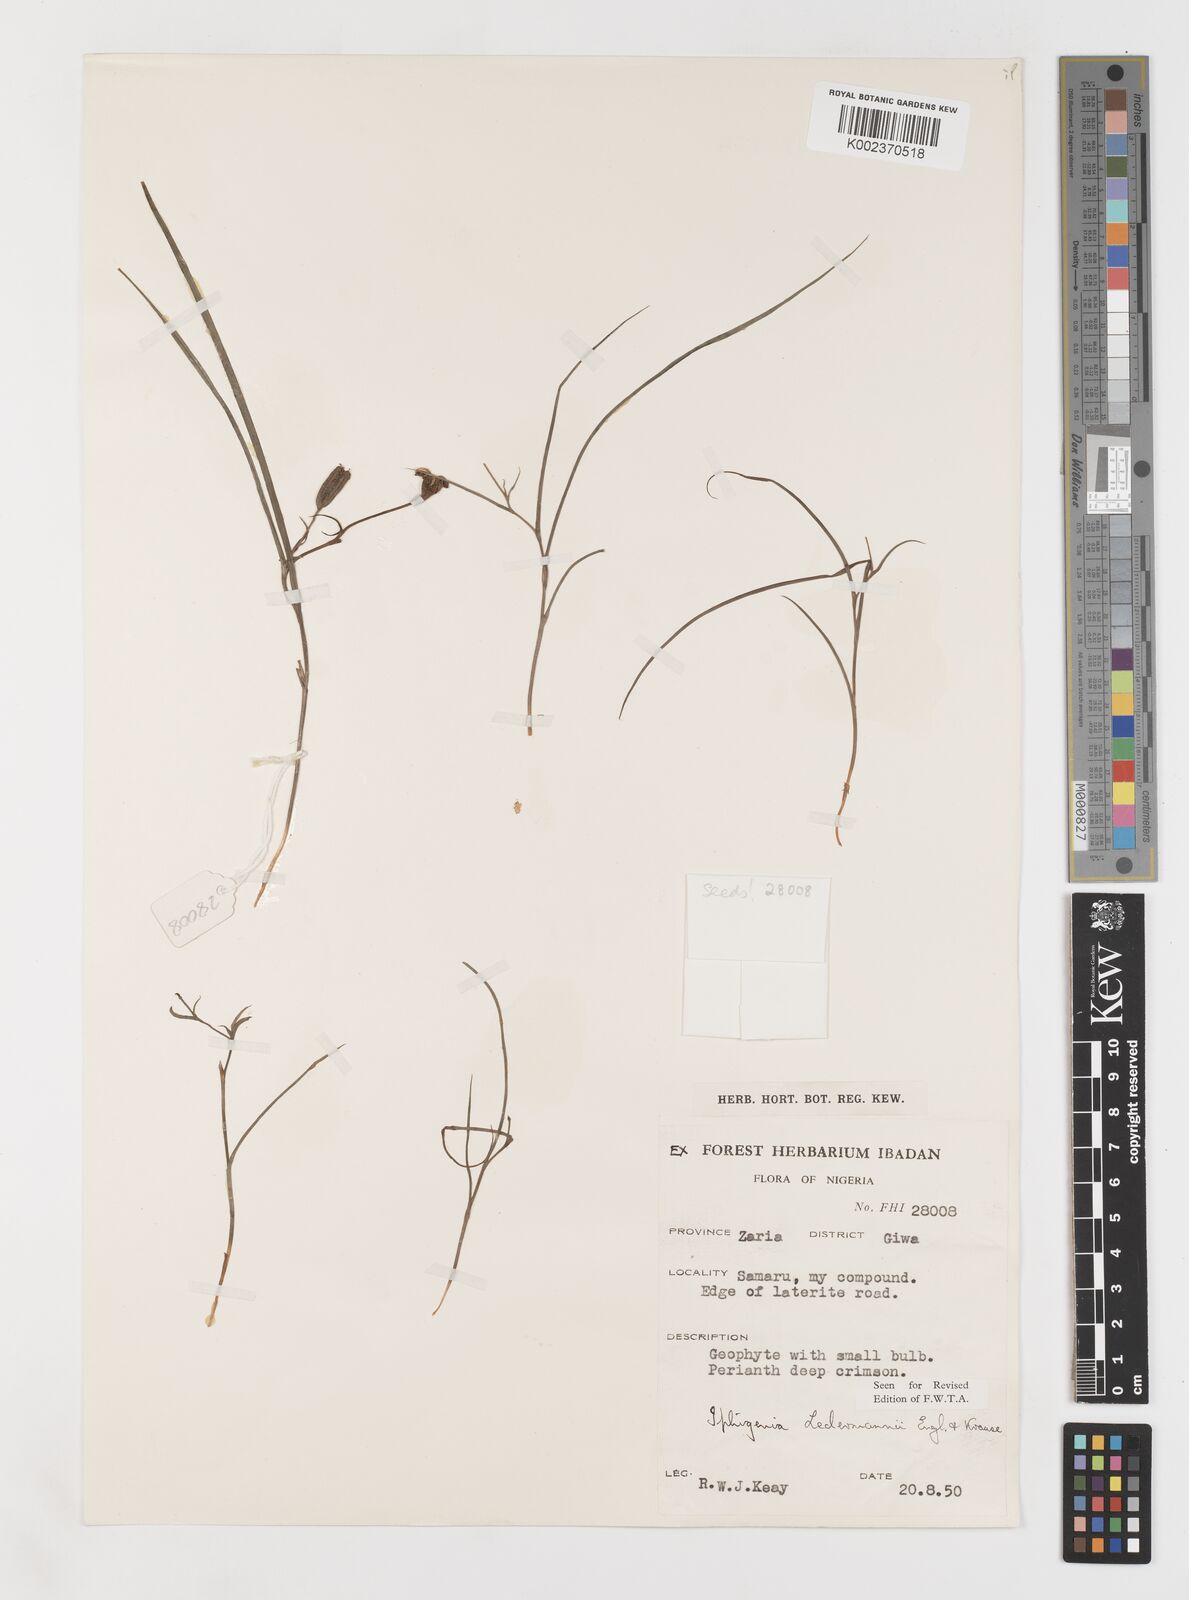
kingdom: Plantae
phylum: Tracheophyta
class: Liliopsida
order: Liliales
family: Colchicaceae
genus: Iphigenia
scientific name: Iphigenia pauciflora
